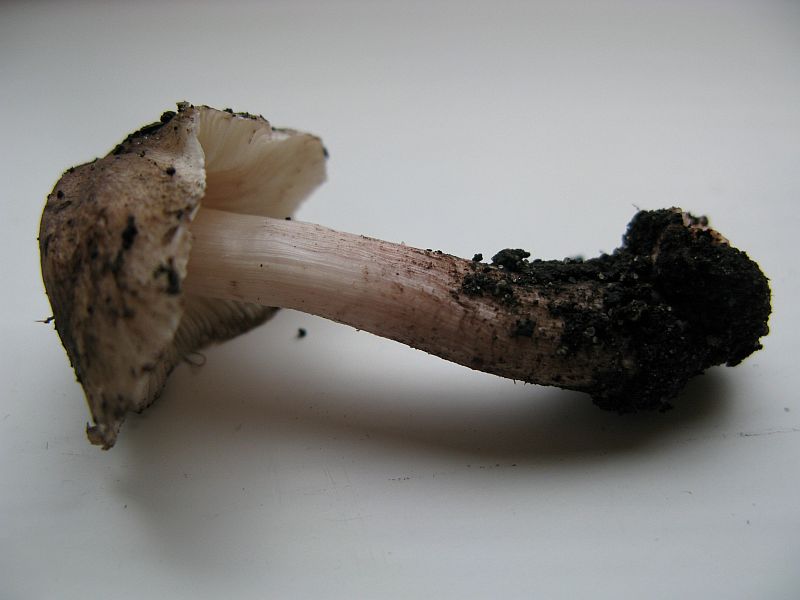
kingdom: Fungi
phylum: Basidiomycota
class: Agaricomycetes
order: Agaricales
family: Inocybaceae
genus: Inosperma
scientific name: Inosperma adaequatum
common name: vinrød trævlhat
